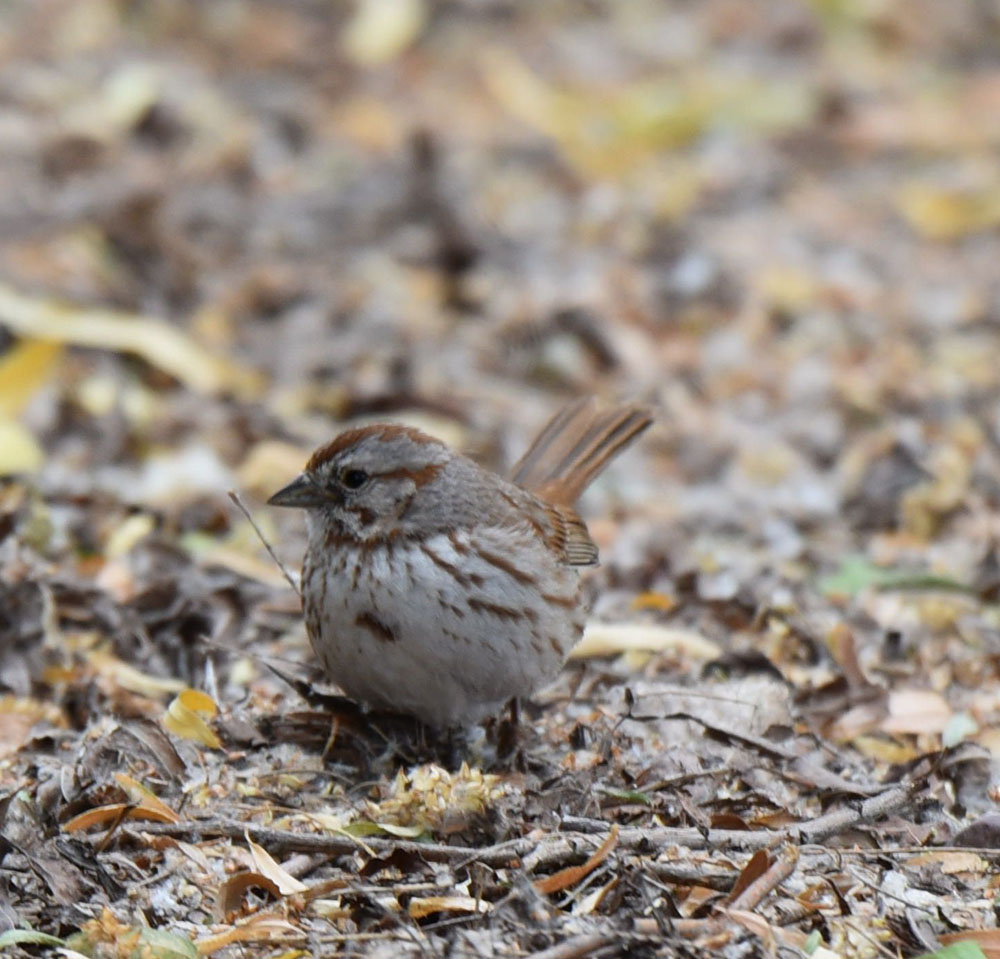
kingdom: Animalia
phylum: Chordata
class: Aves
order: Passeriformes
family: Passerellidae
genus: Melospiza
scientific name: Melospiza melodia
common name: Song sparrow
